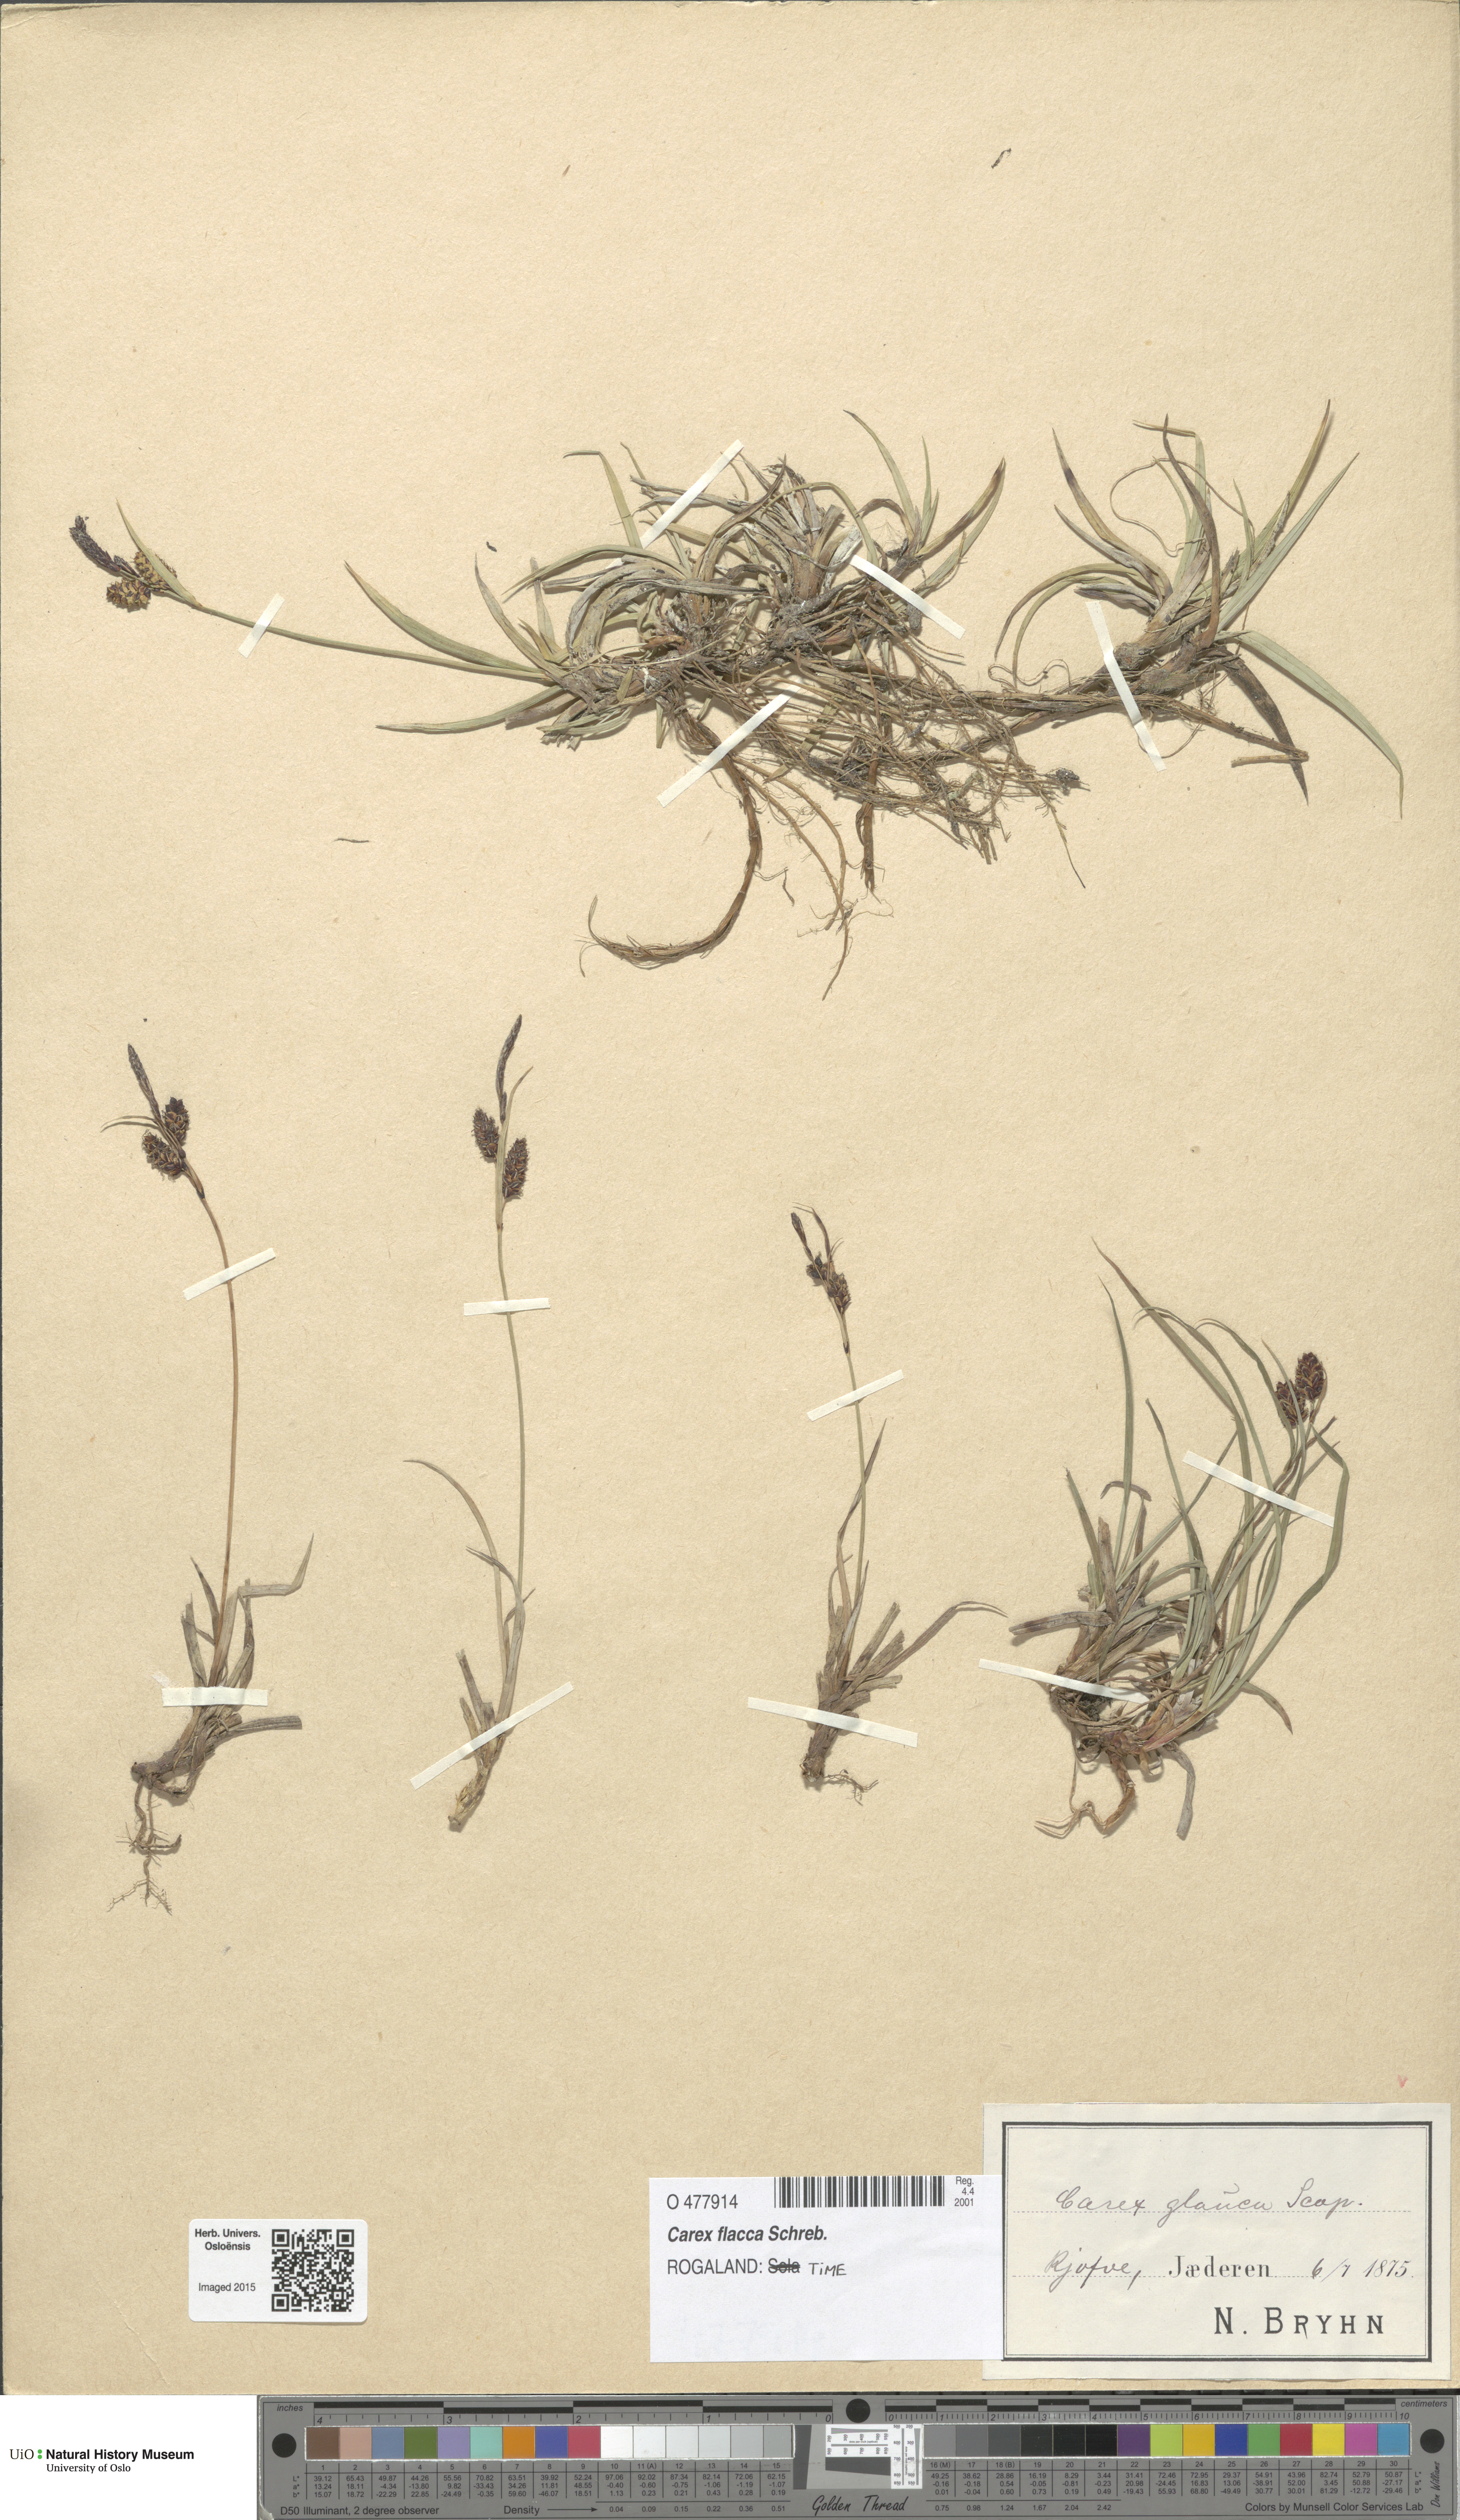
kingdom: Plantae
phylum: Tracheophyta
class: Liliopsida
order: Poales
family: Cyperaceae
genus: Carex
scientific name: Carex flacca
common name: Glaucous sedge
